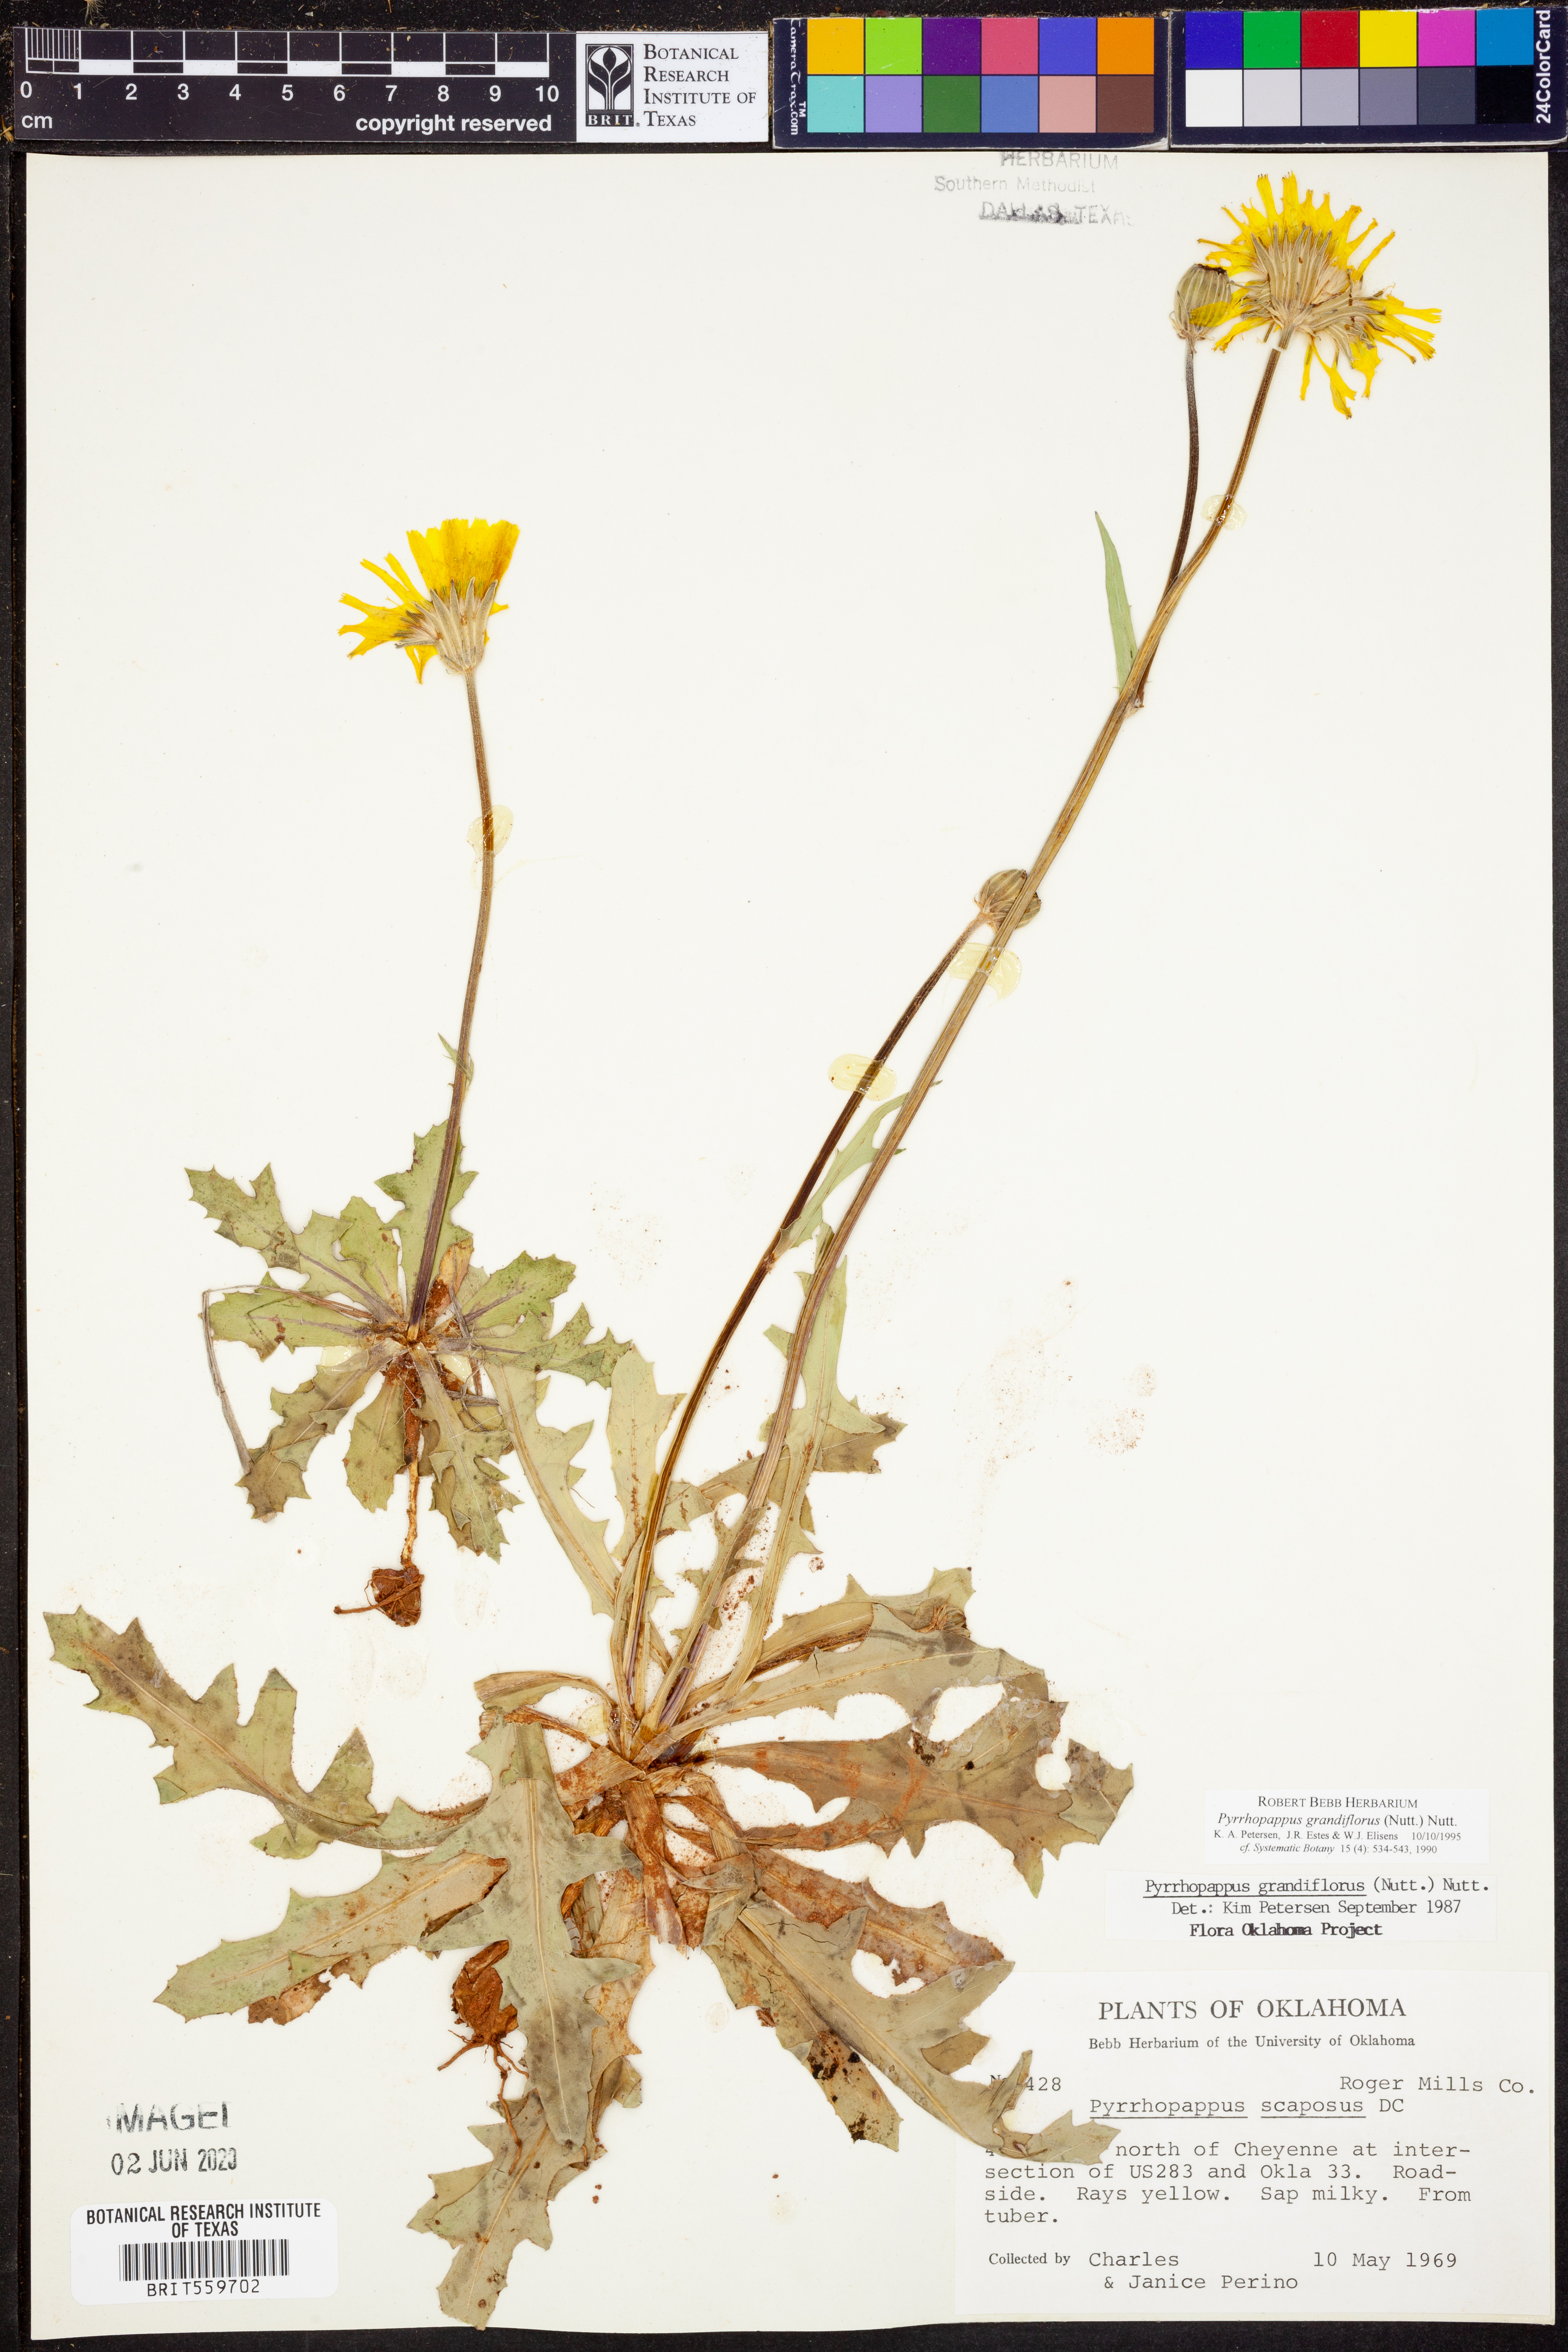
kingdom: Plantae
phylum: Tracheophyta
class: Magnoliopsida
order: Asterales
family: Asteraceae
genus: Pyrrhopappus
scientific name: Pyrrhopappus grandiflorus
